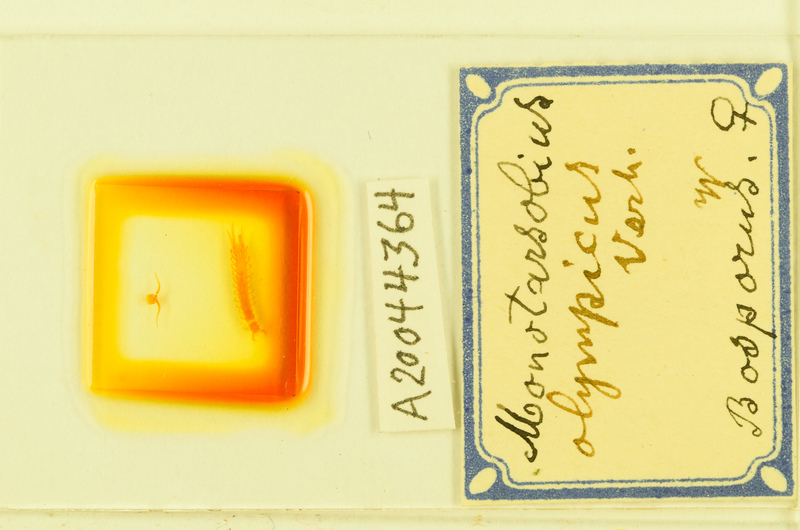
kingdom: Animalia
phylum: Arthropoda
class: Chilopoda
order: Lithobiomorpha
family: Lithobiidae
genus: Lithobius
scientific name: Lithobius crassipes
